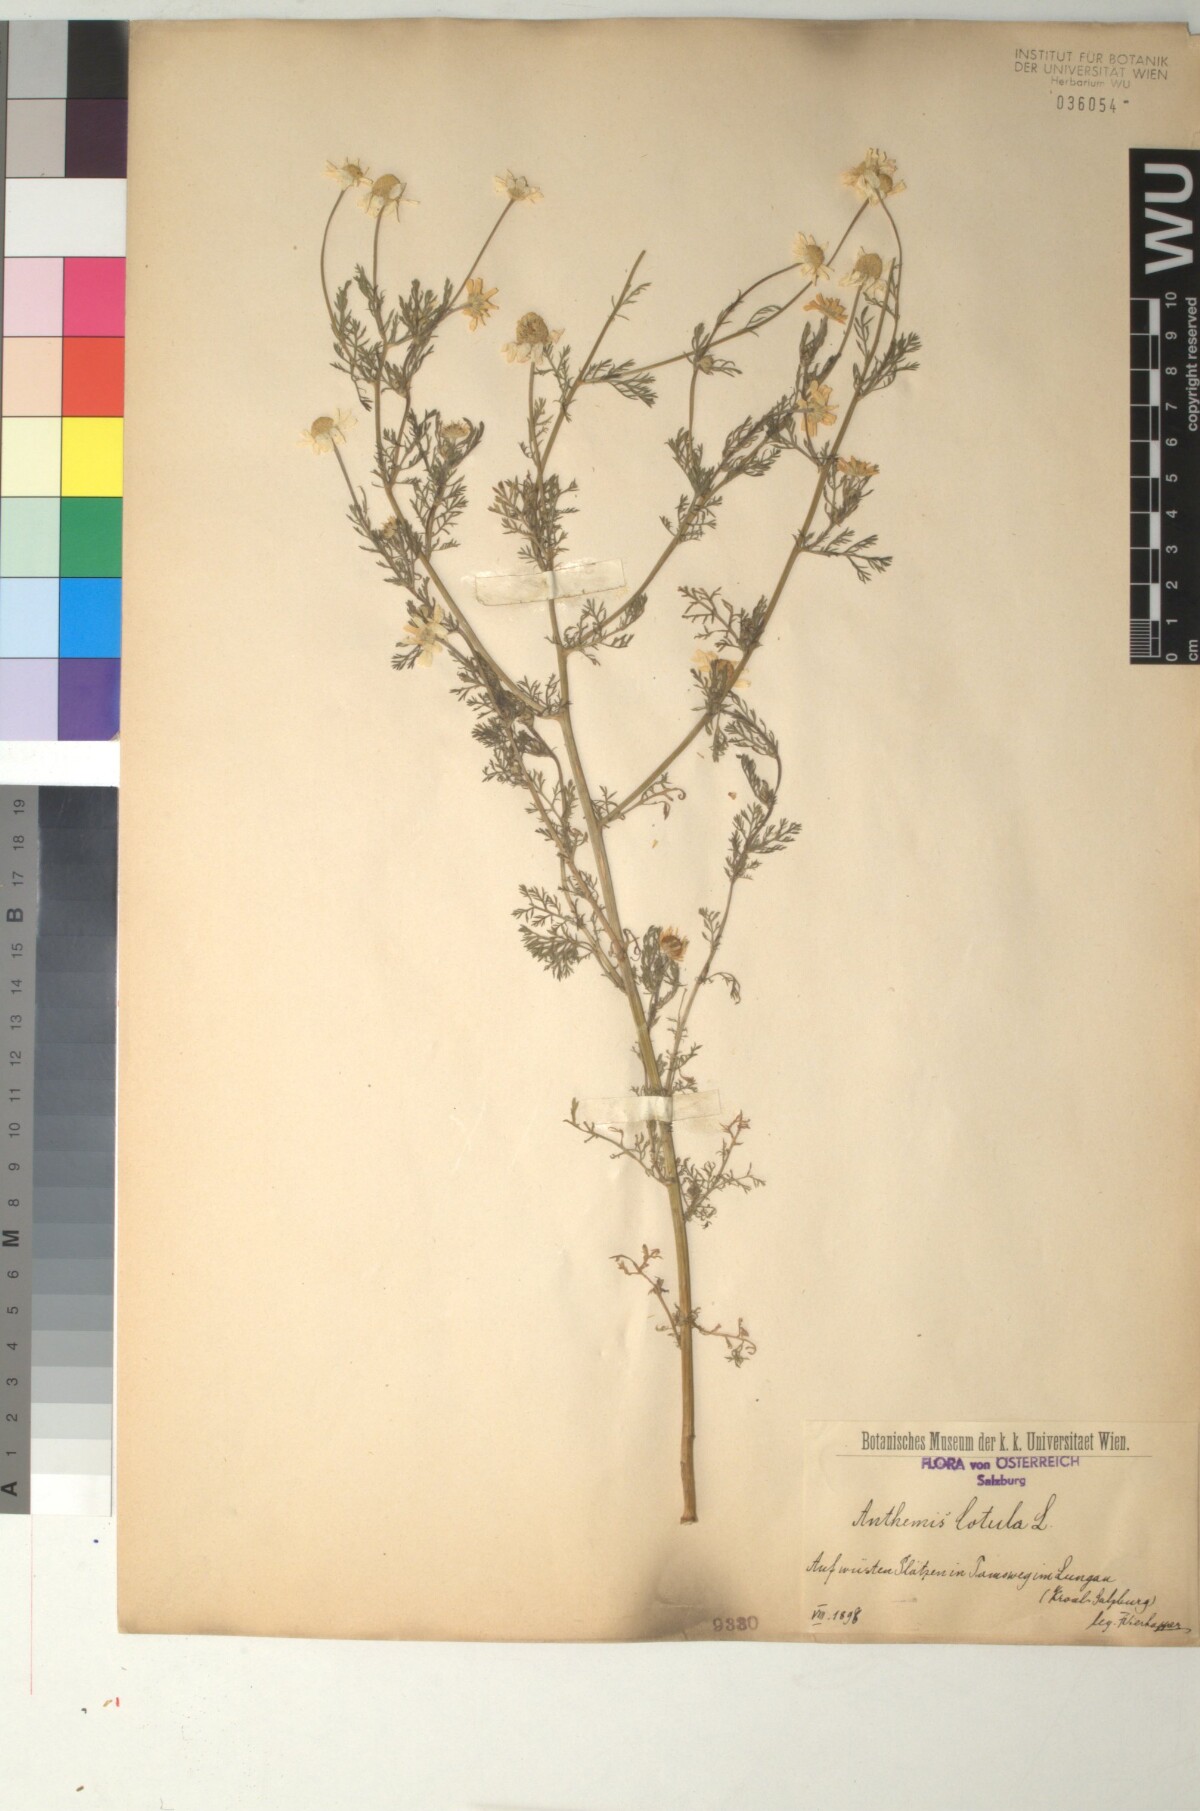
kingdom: Plantae
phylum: Tracheophyta
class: Magnoliopsida
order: Asterales
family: Asteraceae
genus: Anthemis
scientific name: Anthemis cotula
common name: Stinking chamomile
